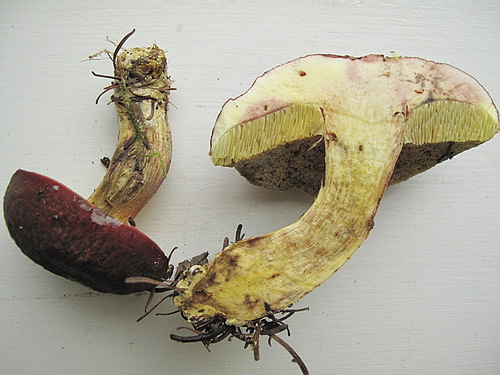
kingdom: Fungi
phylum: Basidiomycota
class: Agaricomycetes
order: Boletales
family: Boletaceae
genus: Xerocomellus
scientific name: Xerocomellus pruinatus
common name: dugget rørhat
